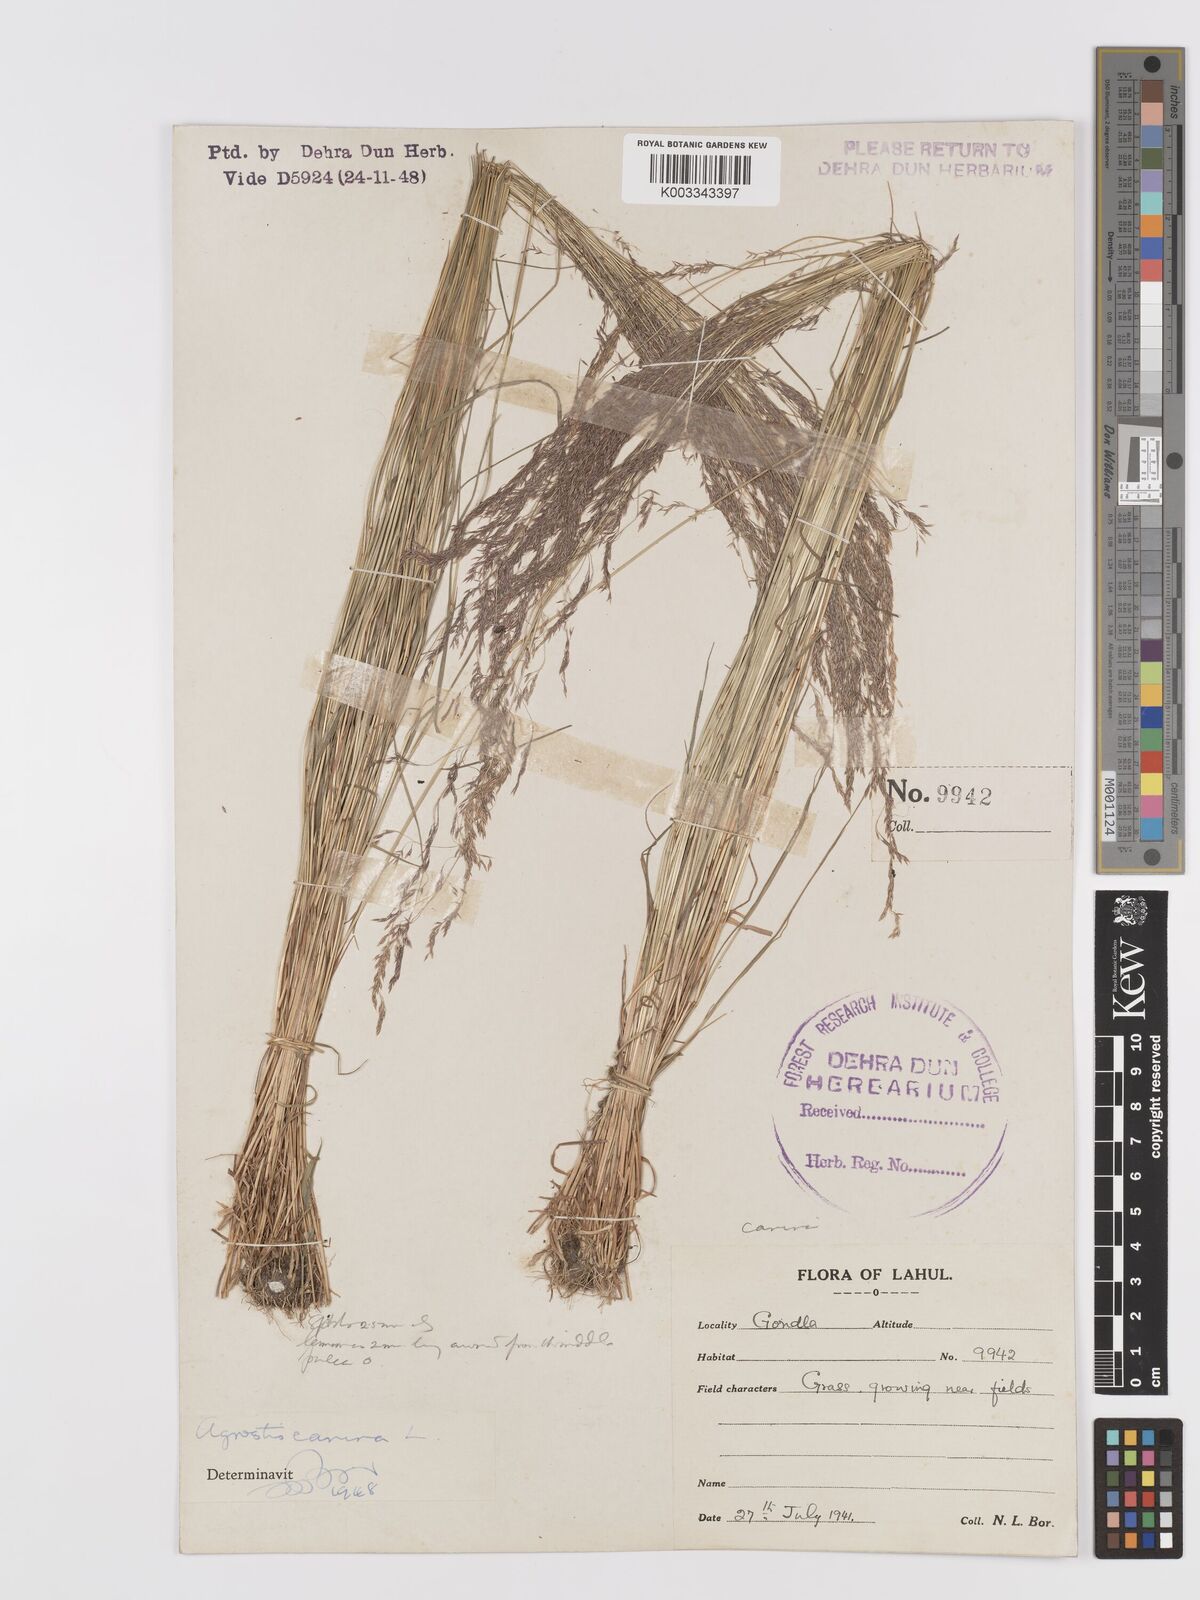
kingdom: Plantae
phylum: Tracheophyta
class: Liliopsida
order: Poales
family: Poaceae
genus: Agrostis
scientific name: Agrostis vinealis
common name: Brown bent
